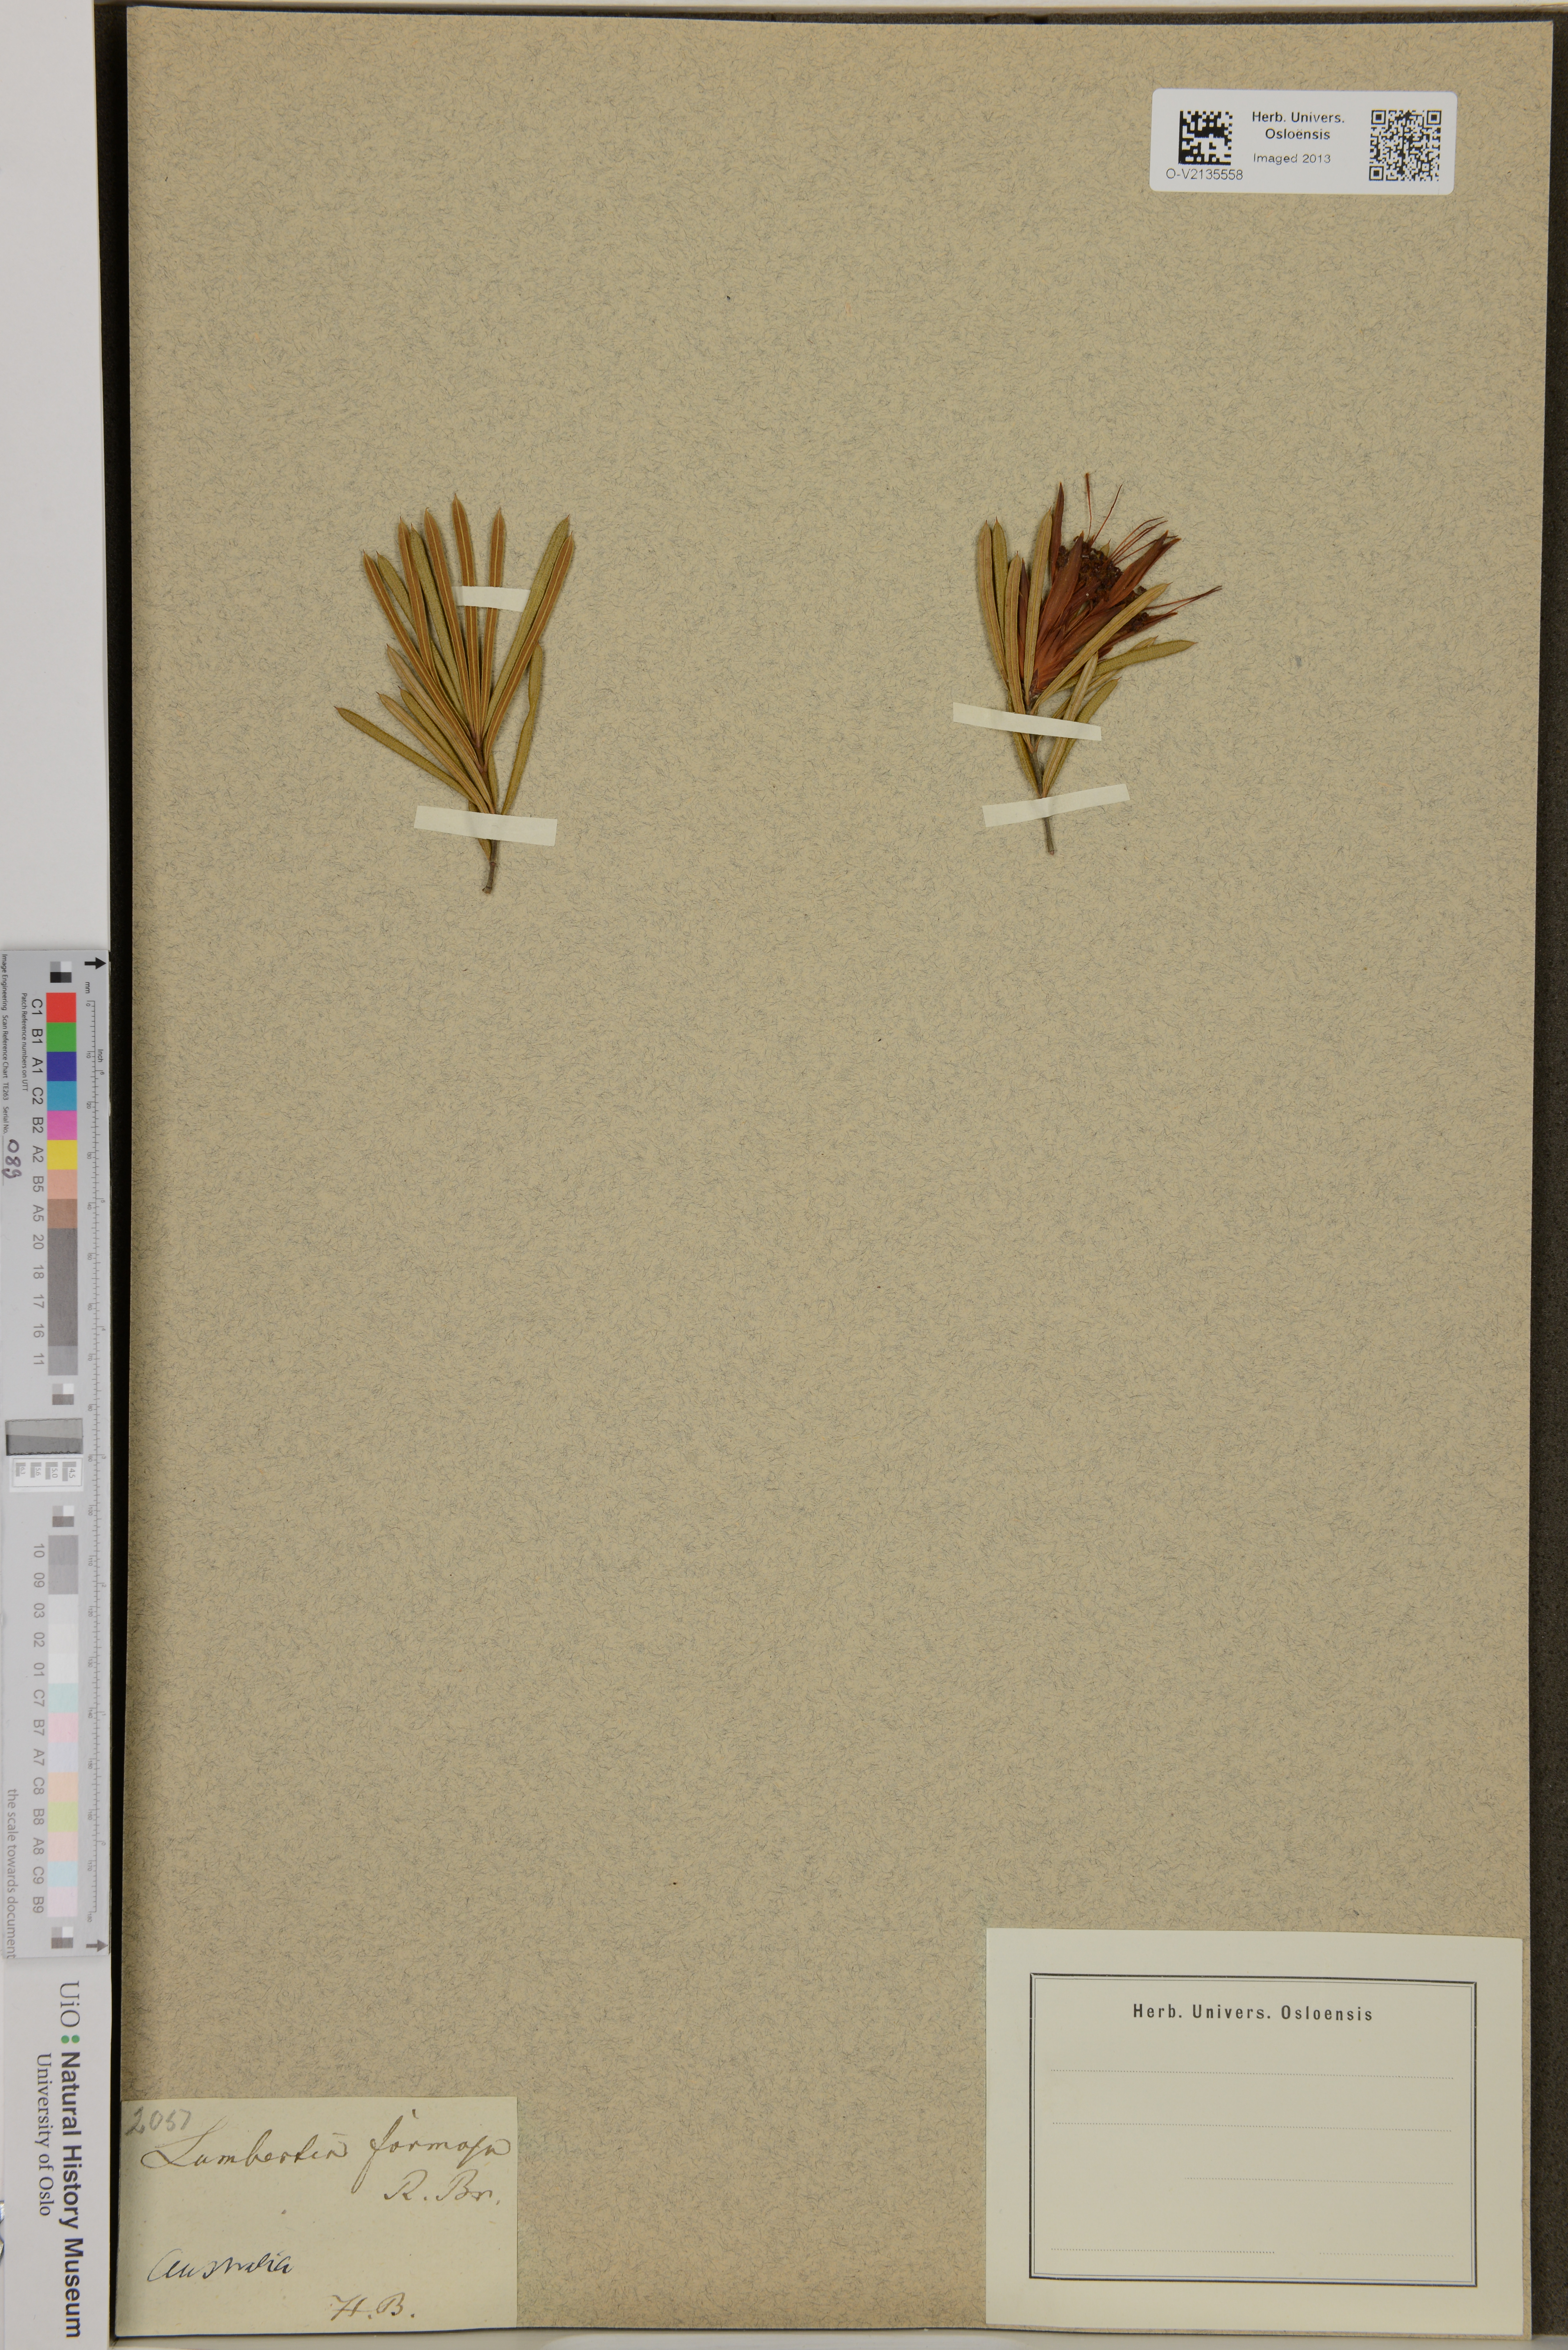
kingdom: Plantae
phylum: Tracheophyta
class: Magnoliopsida
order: Proteales
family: Proteaceae
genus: Lambertia
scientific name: Lambertia formosa
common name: Mountain-devil
